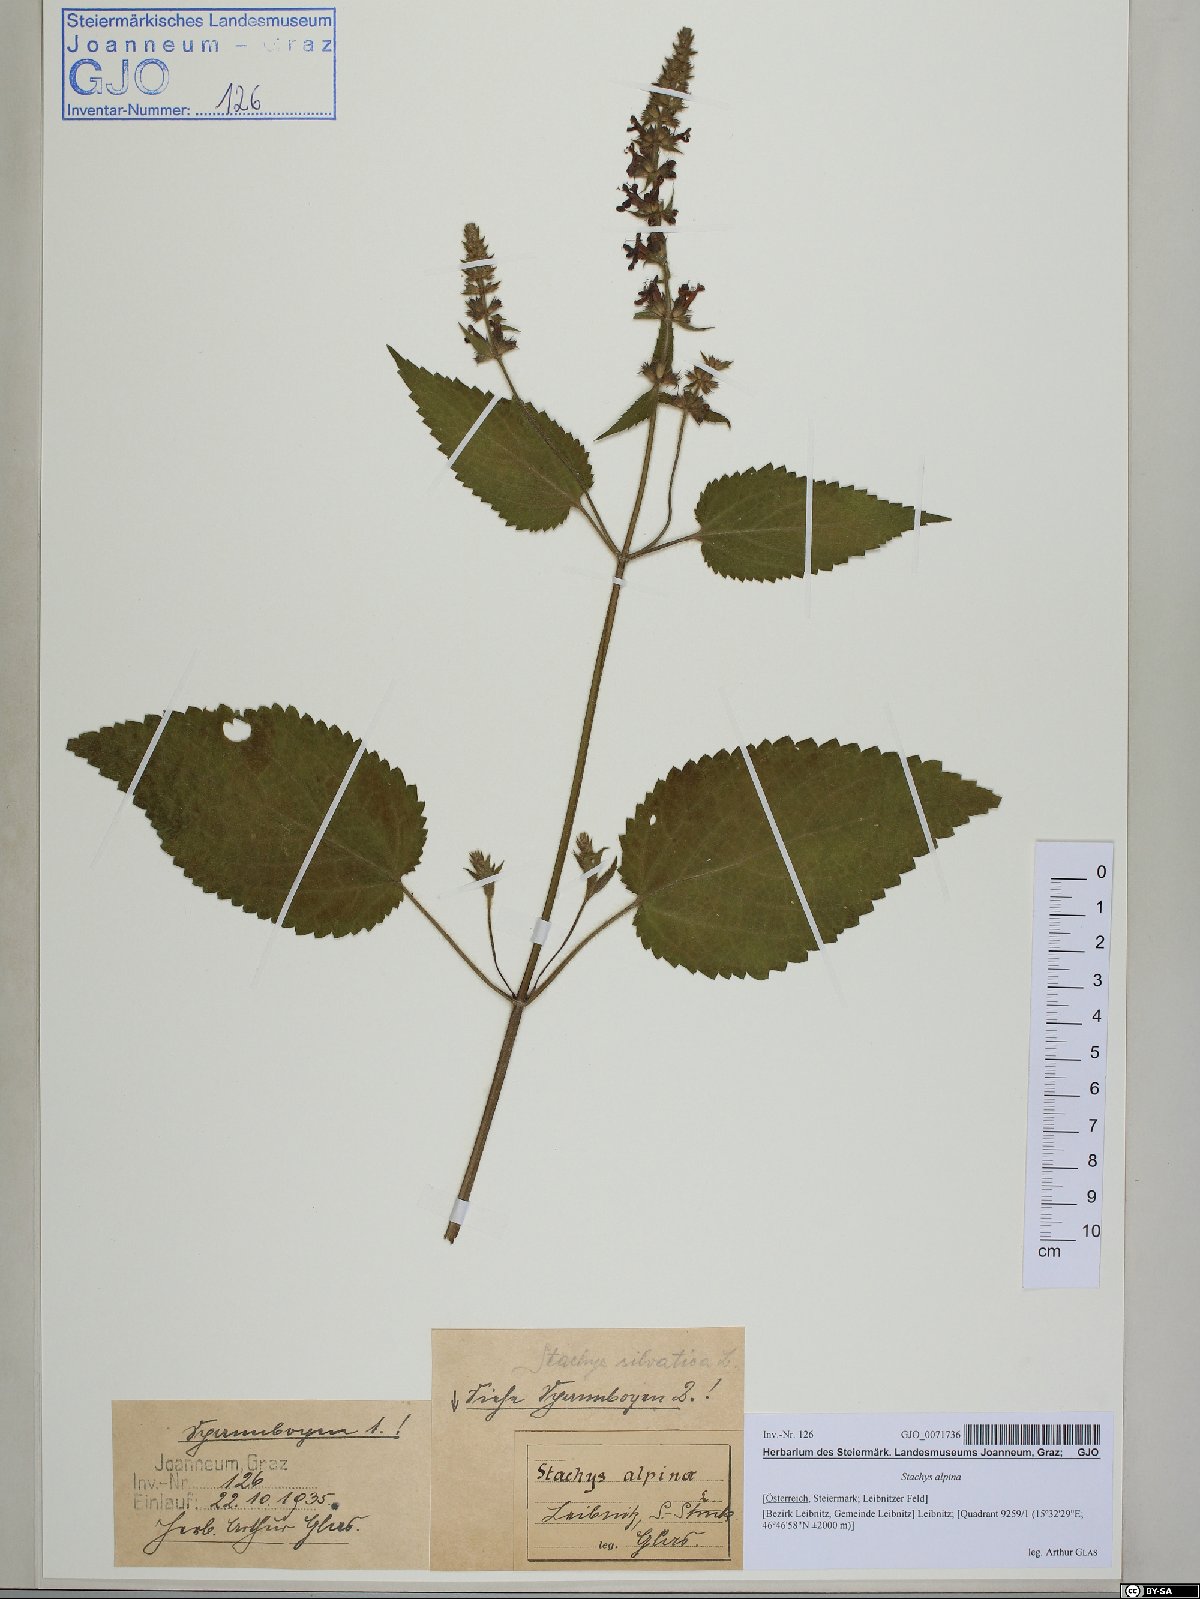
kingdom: Plantae
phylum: Tracheophyta
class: Magnoliopsida
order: Lamiales
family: Lamiaceae
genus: Stachys
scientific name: Stachys alpina
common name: Limestone woundwort
